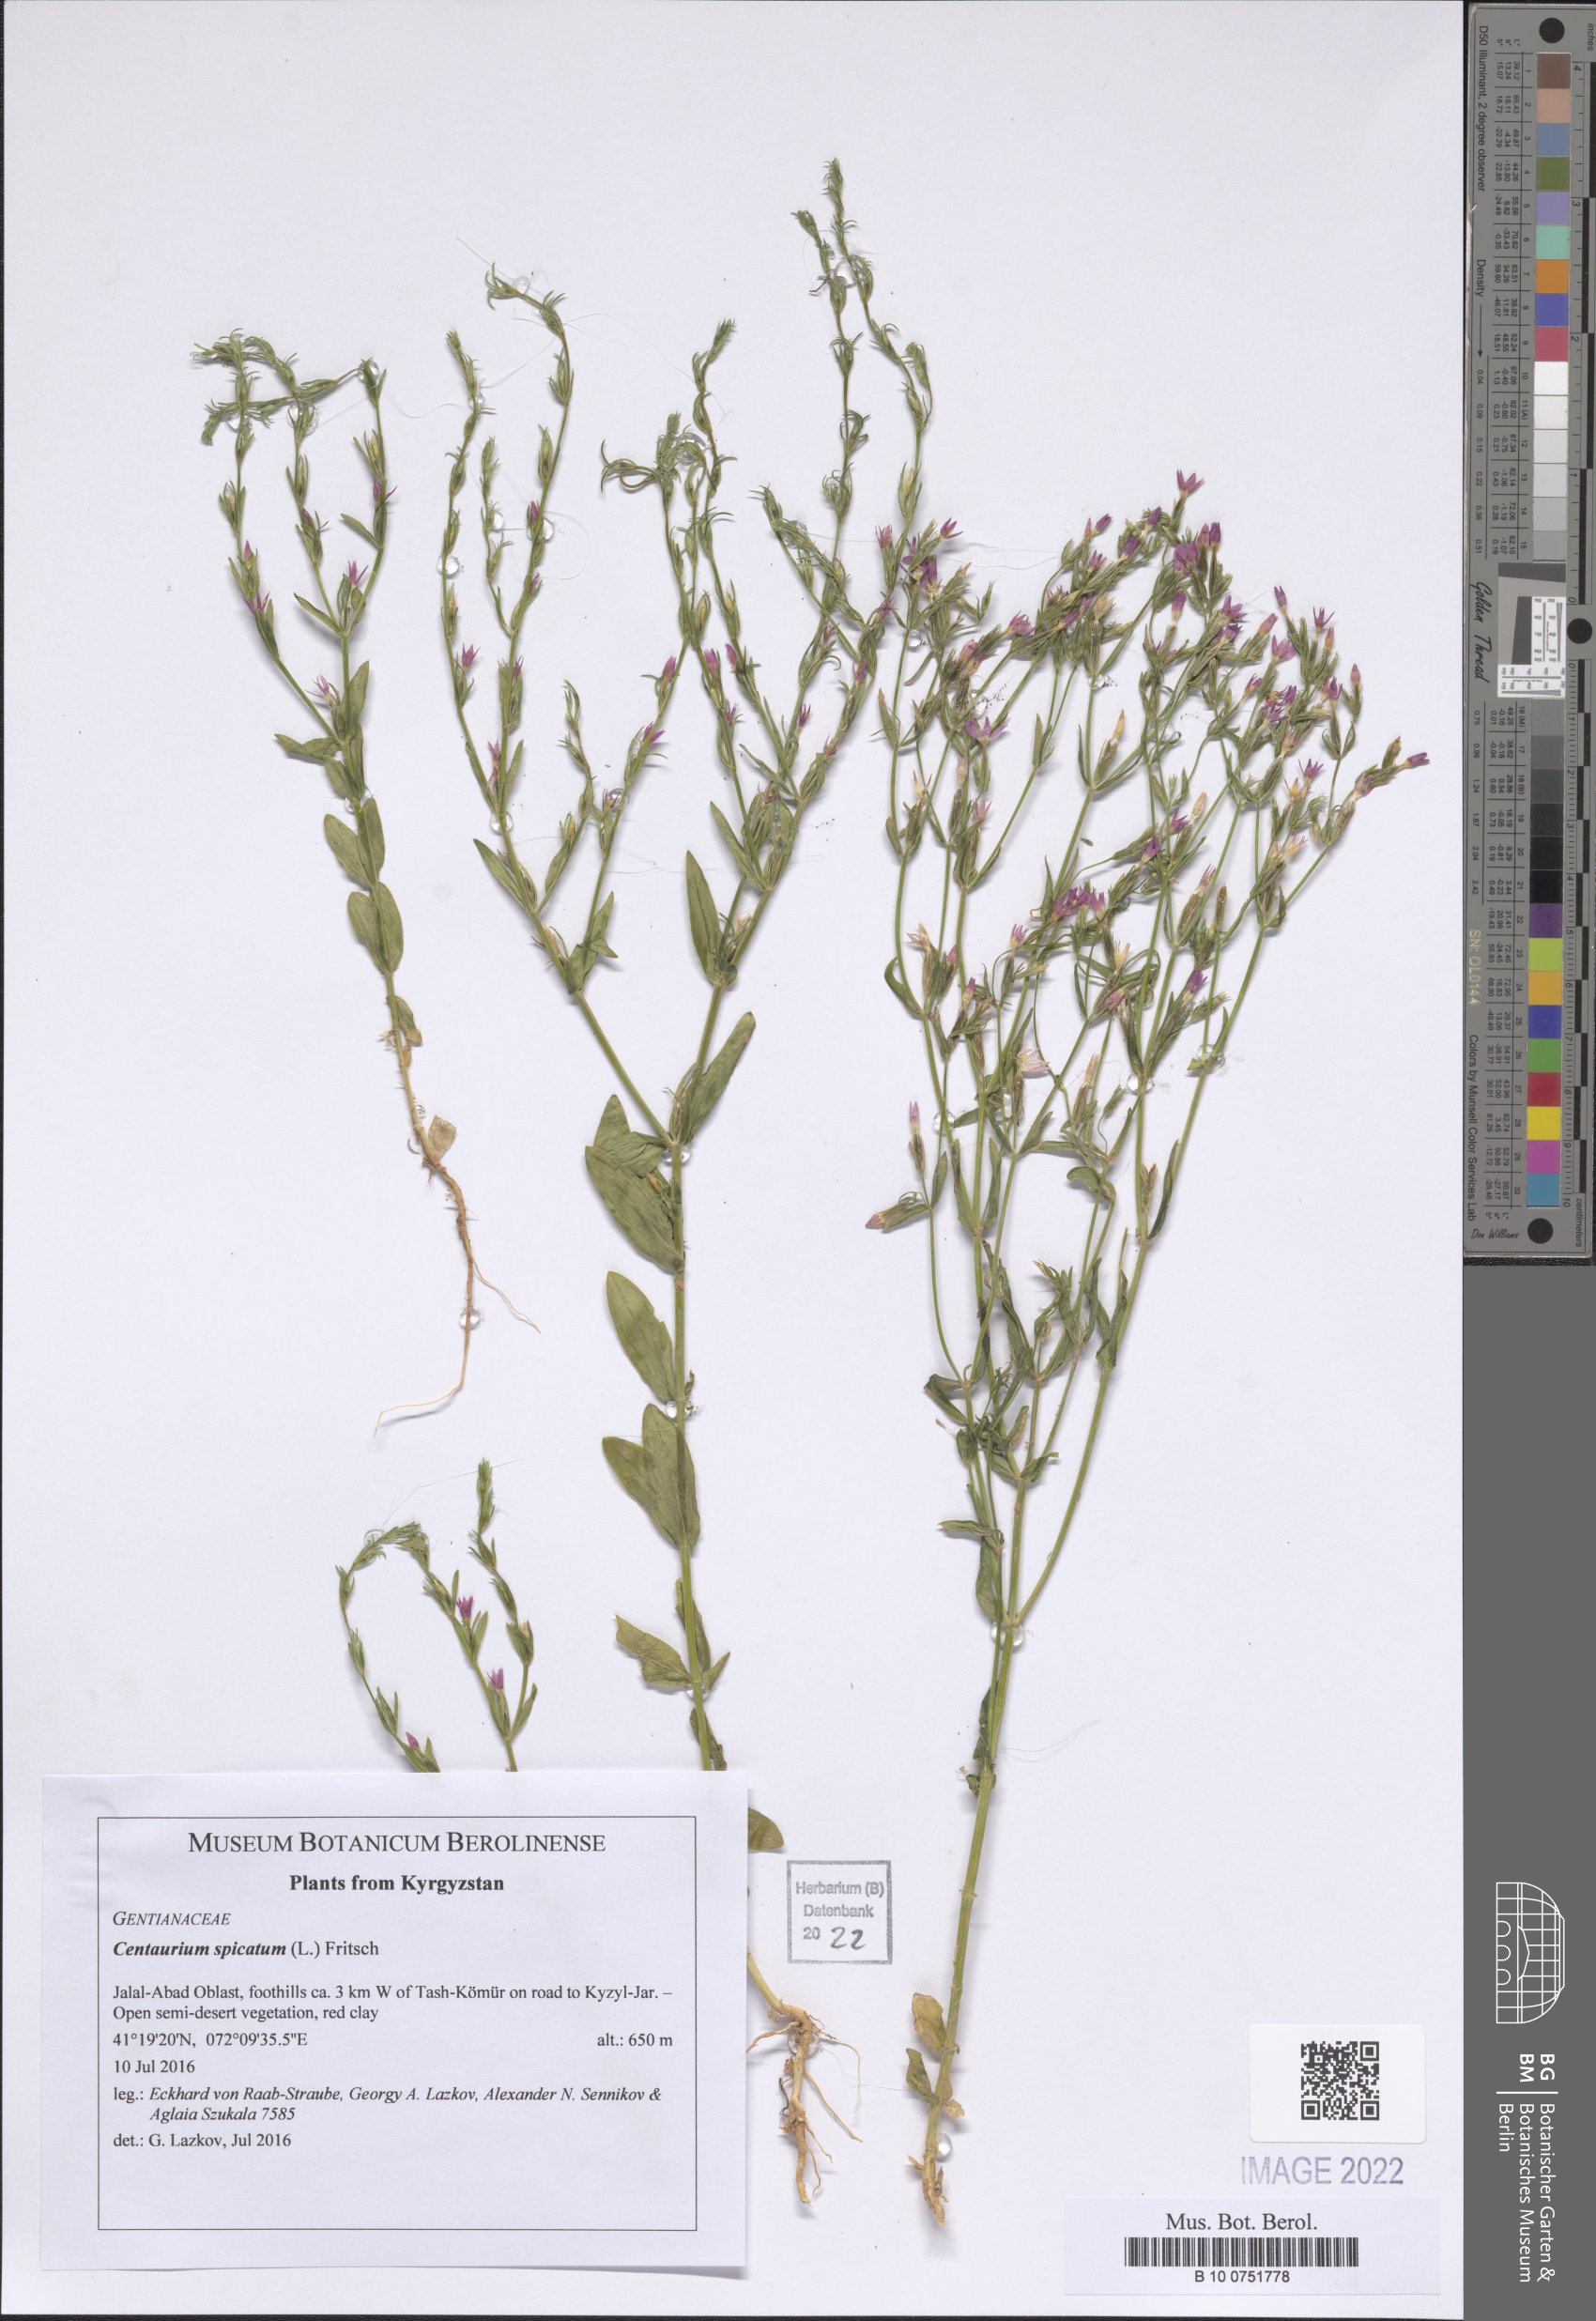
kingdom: Plantae
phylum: Tracheophyta
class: Magnoliopsida
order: Gentianales
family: Gentianaceae
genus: Schenkia
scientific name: Schenkia spicata
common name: Spiked centaury
